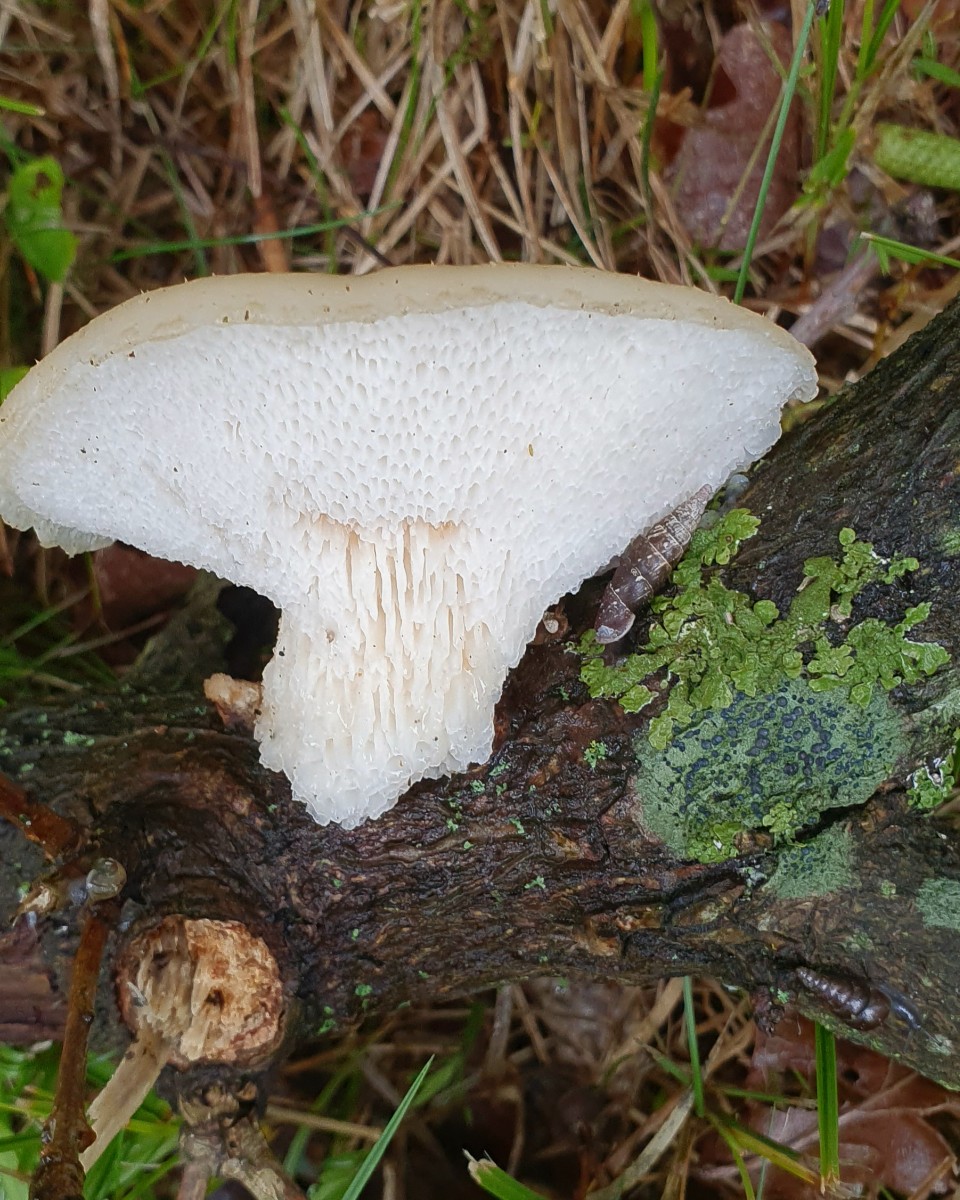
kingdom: Fungi
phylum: Basidiomycota
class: Agaricomycetes
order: Polyporales
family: Polyporaceae
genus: Polyporus
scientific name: Polyporus tuberaster
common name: knoldet stilkporesvamp
